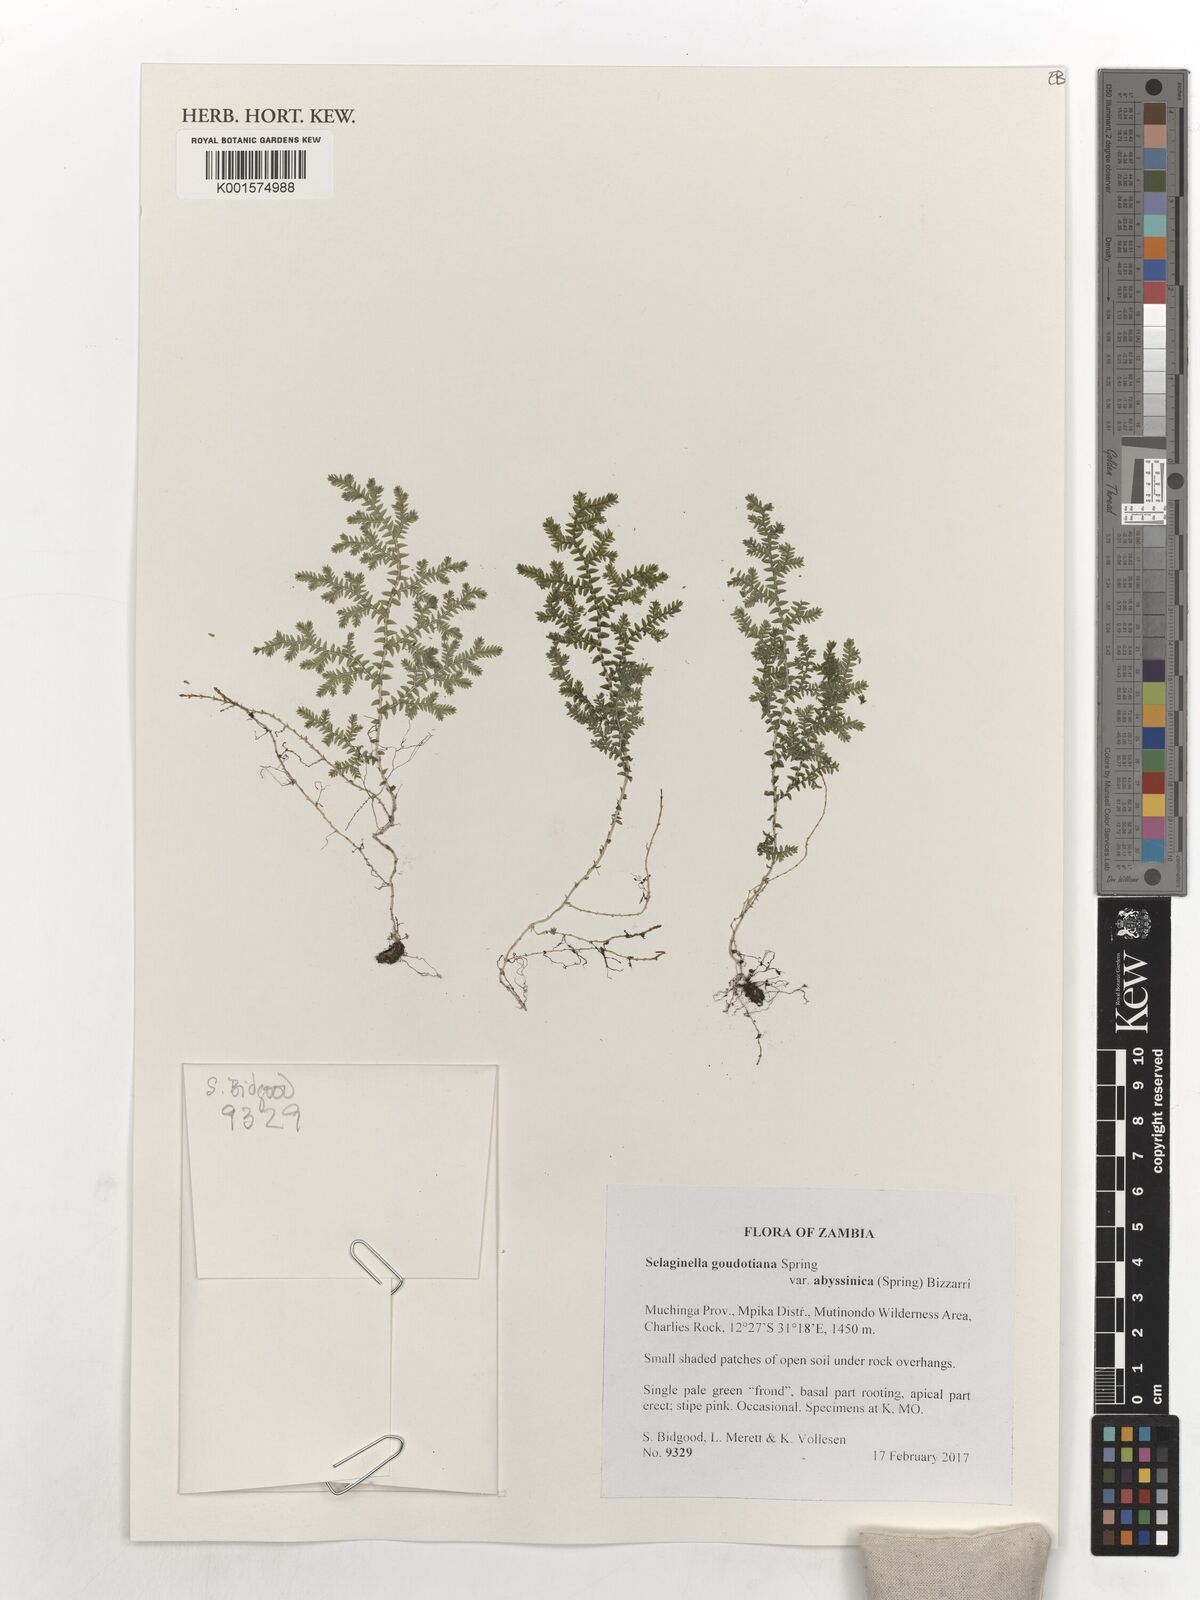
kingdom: Plantae
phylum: Tracheophyta
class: Lycopodiopsida
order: Selaginellales
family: Selaginellaceae
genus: Selaginella
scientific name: Selaginella goudotiana
